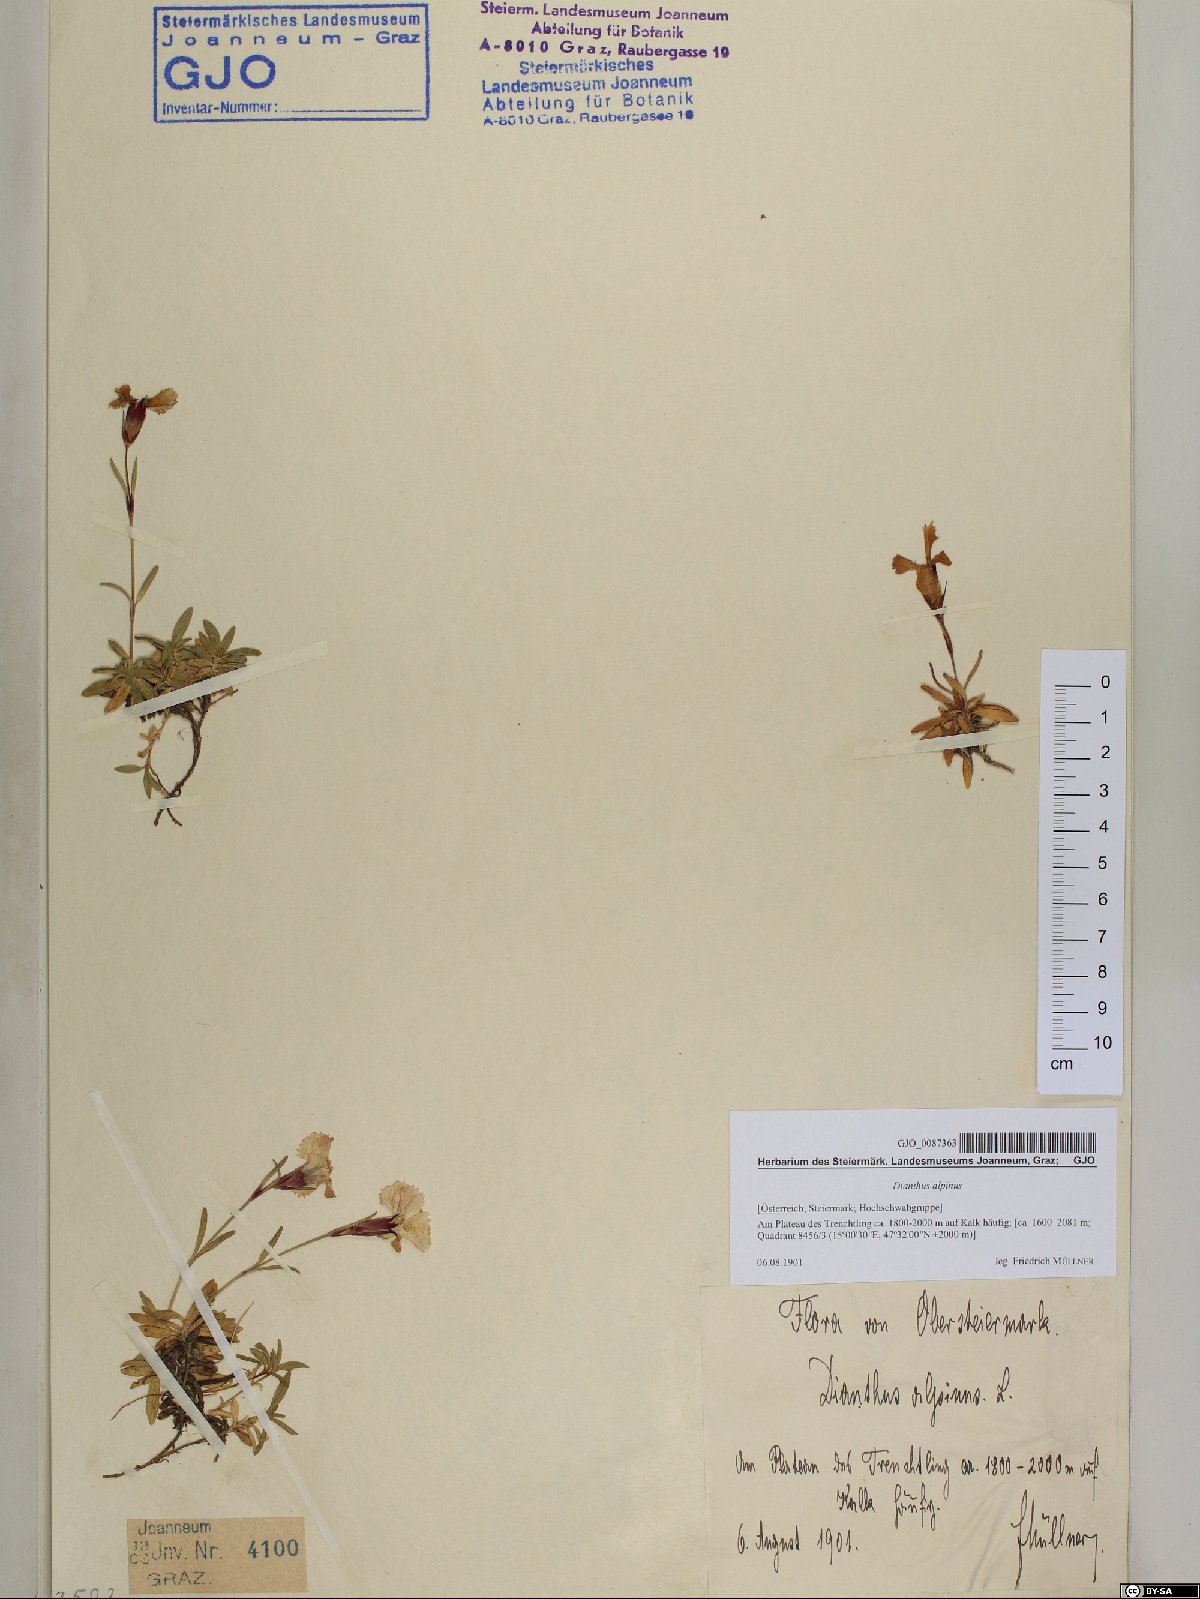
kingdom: Plantae
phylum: Tracheophyta
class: Magnoliopsida
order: Caryophyllales
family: Caryophyllaceae
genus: Dianthus
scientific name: Dianthus alpinus
